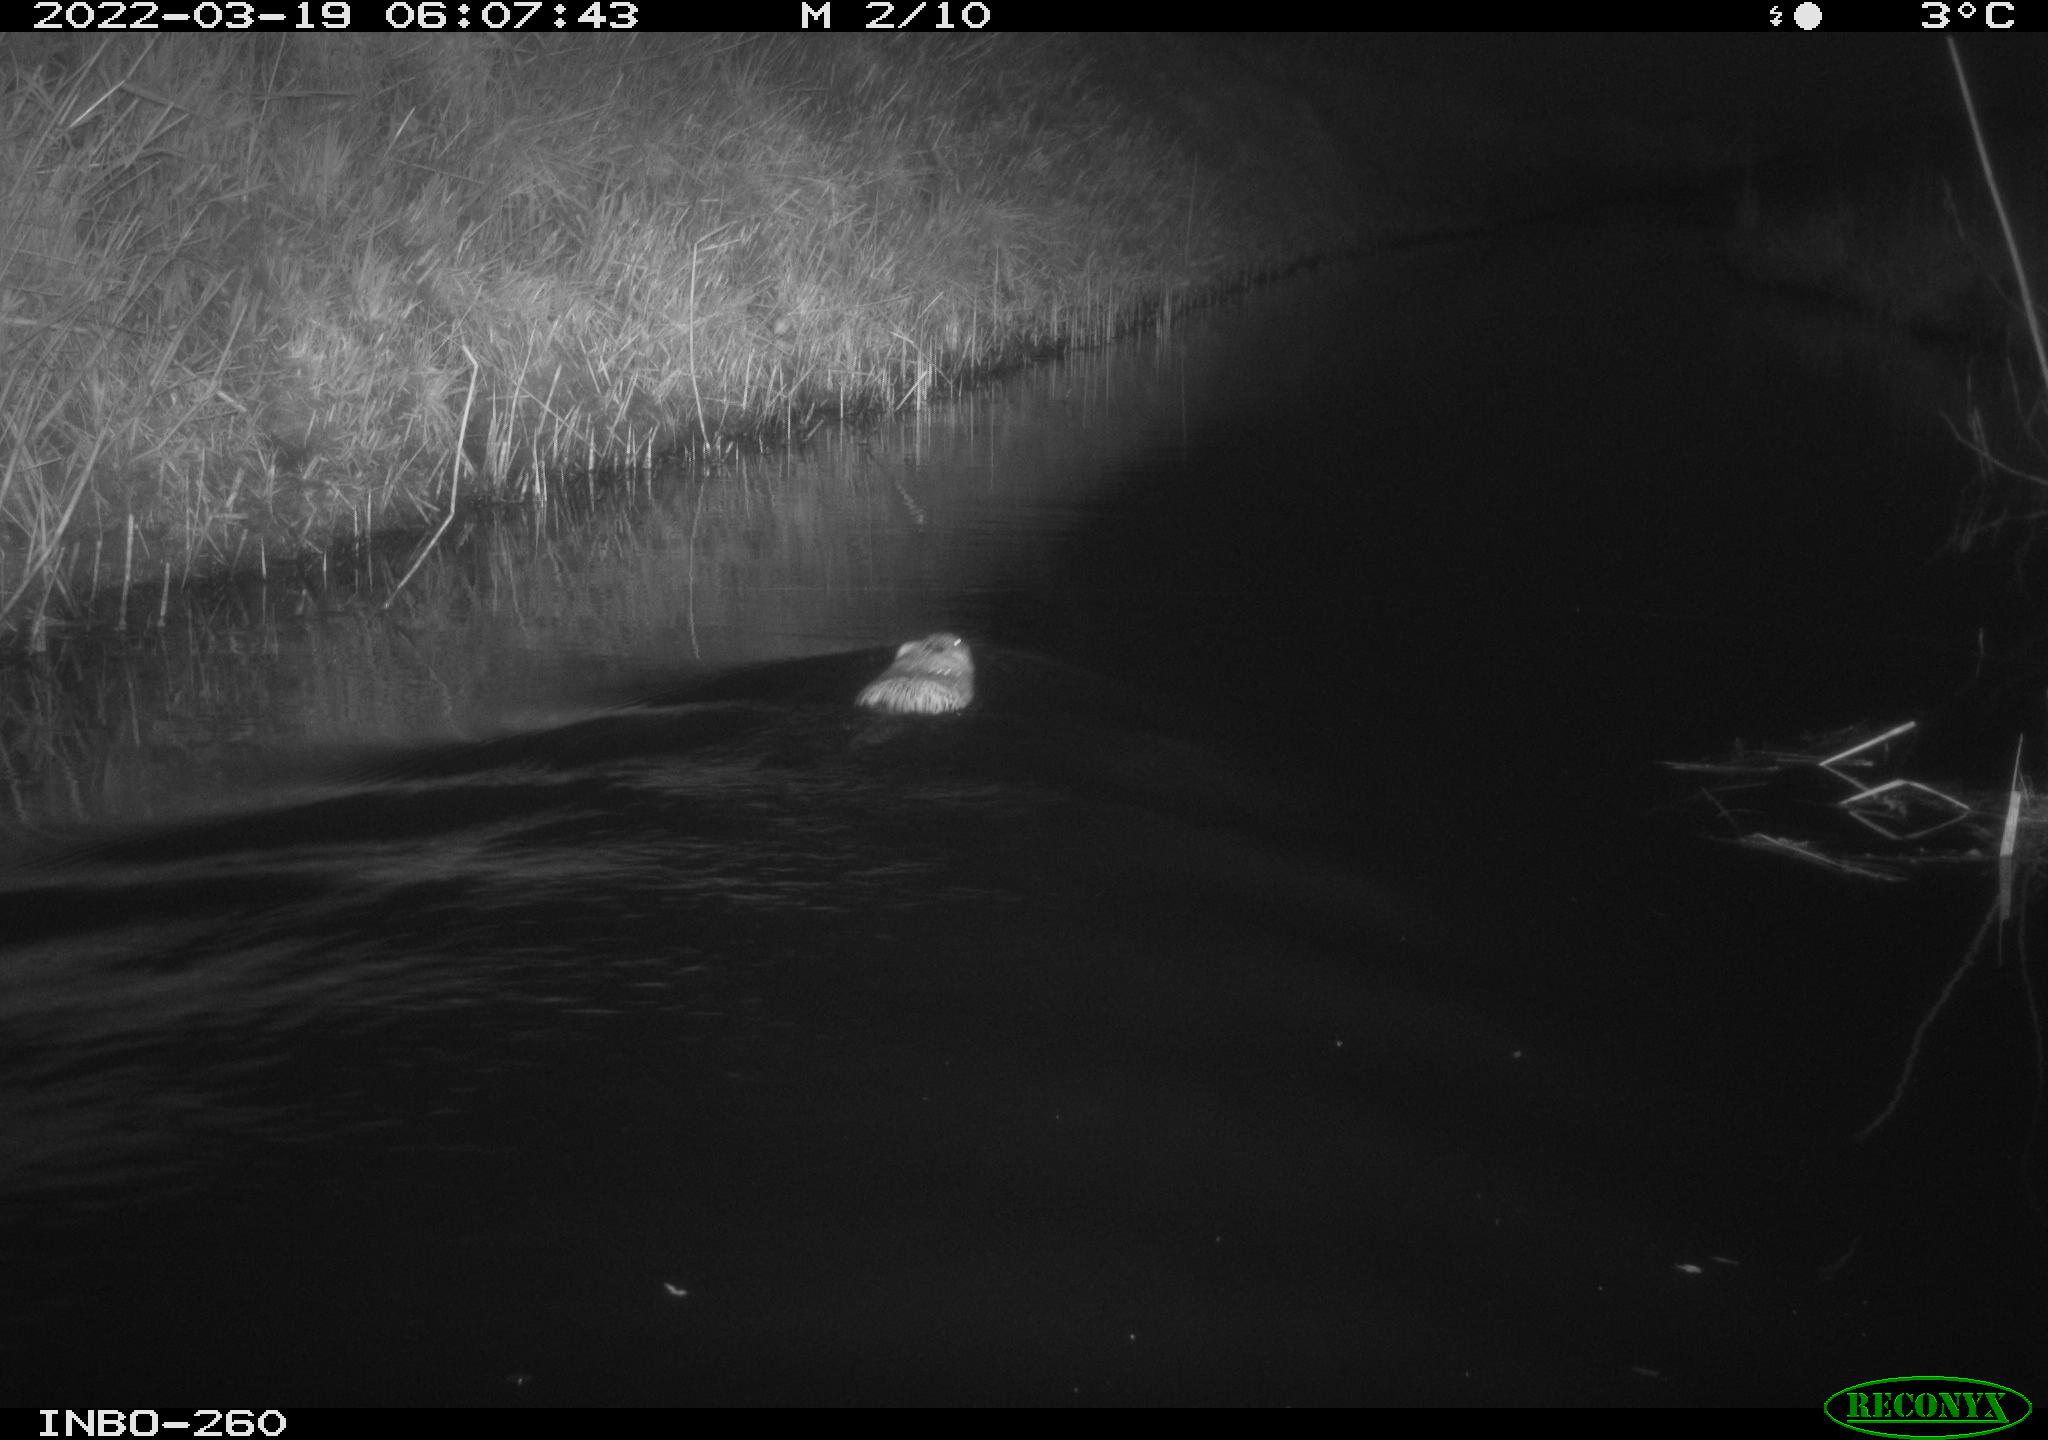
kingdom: Animalia
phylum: Chordata
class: Mammalia
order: Rodentia
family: Cricetidae
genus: Ondatra
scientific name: Ondatra zibethicus
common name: Muskrat
